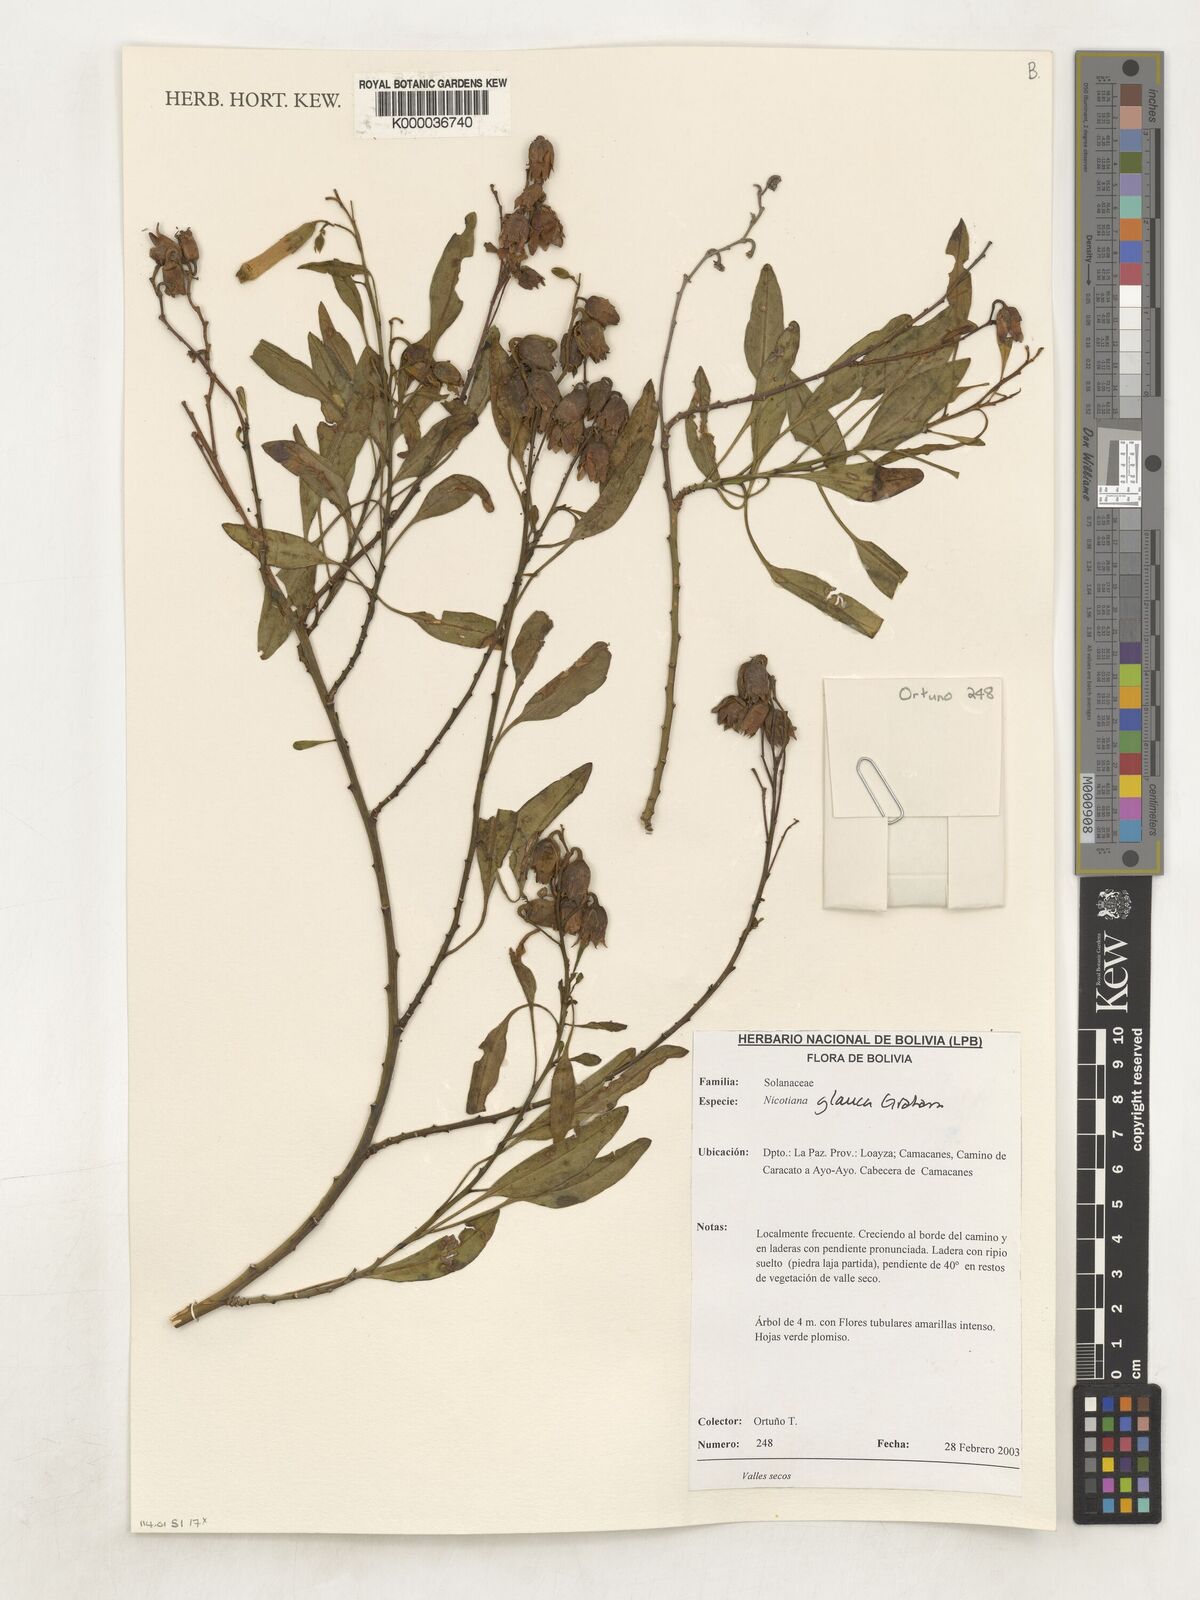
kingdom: Plantae
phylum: Tracheophyta
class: Magnoliopsida
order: Solanales
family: Solanaceae
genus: Lycianthes
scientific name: Lycianthes lycioides
